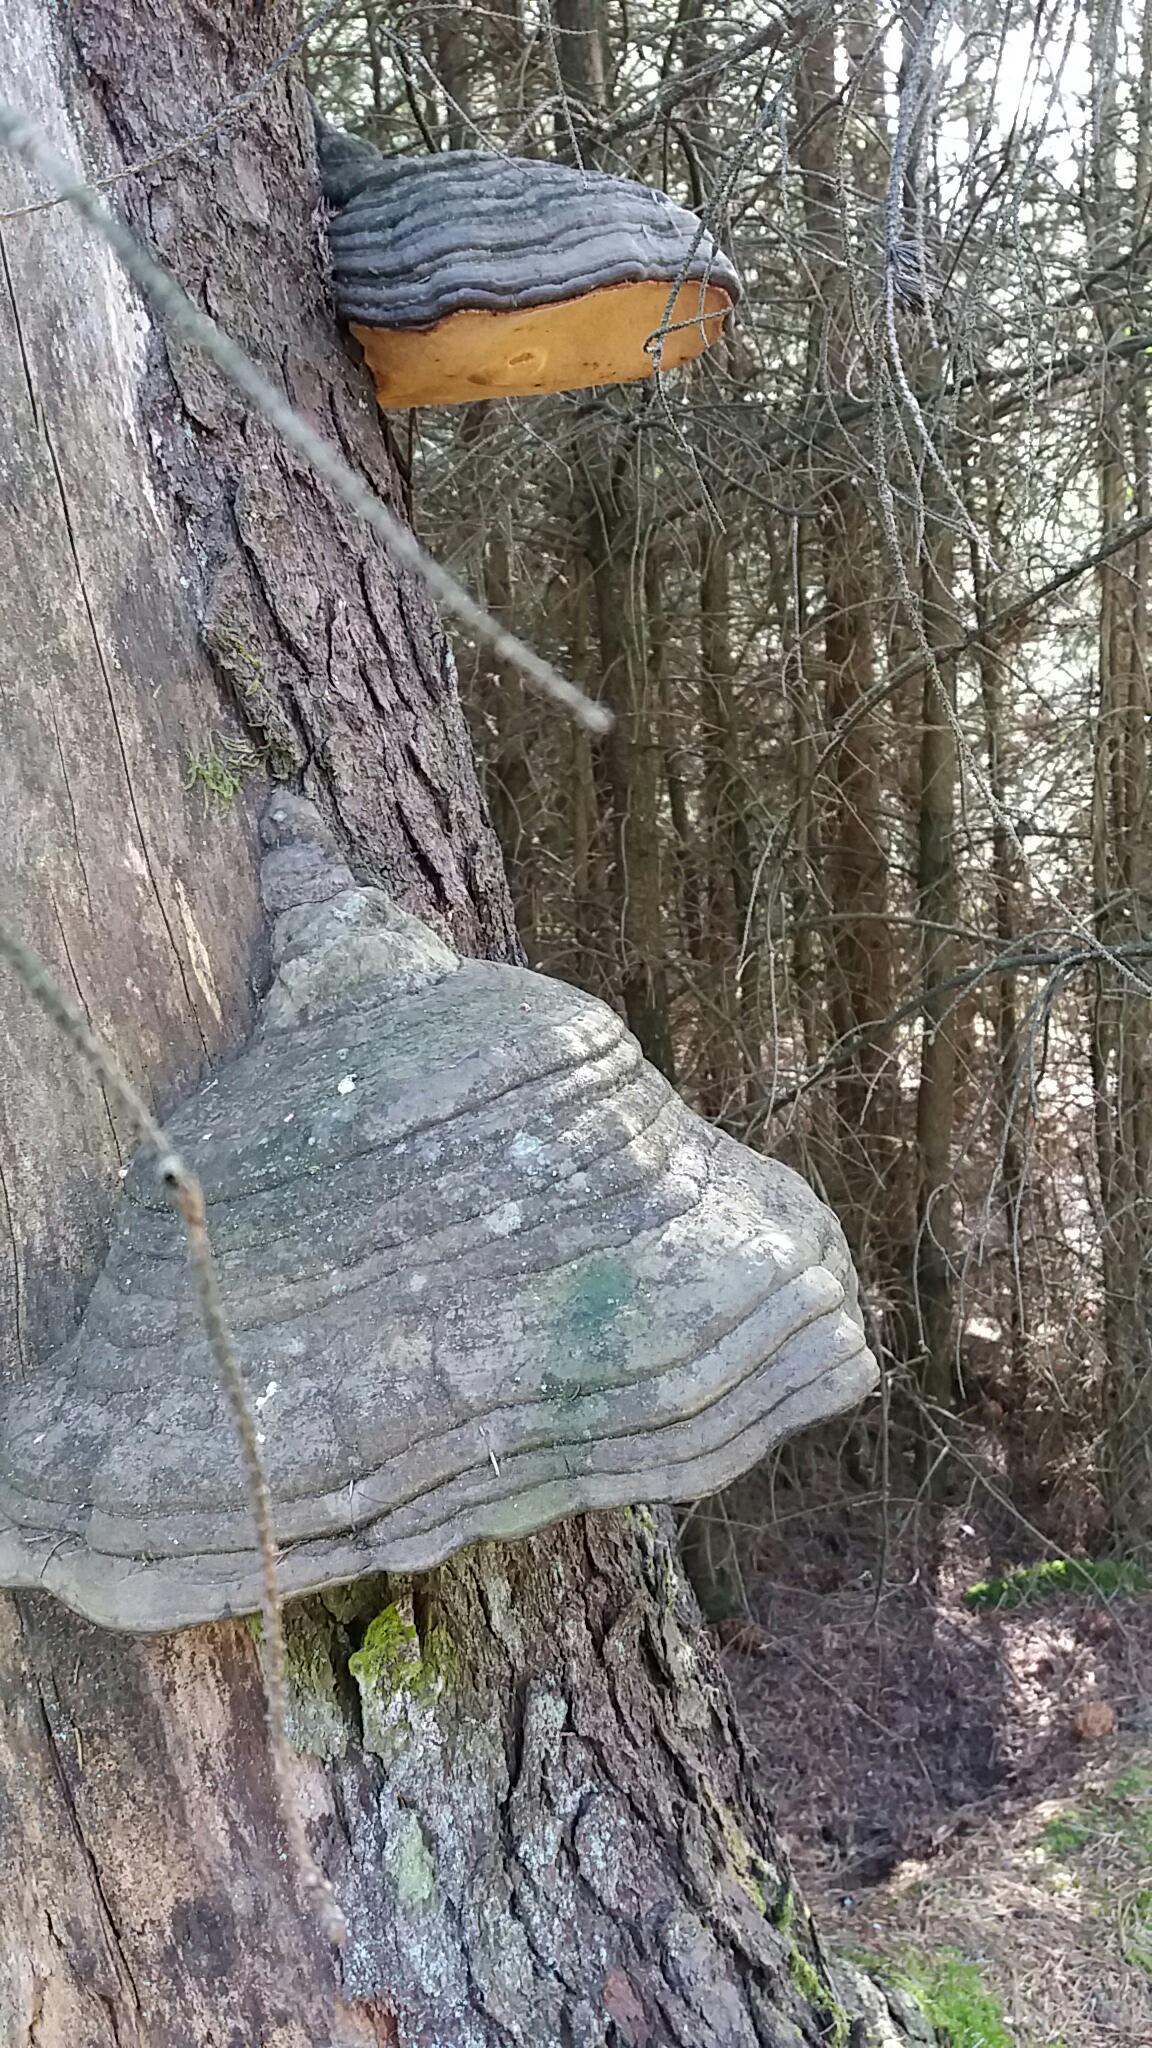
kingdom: Fungi
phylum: Basidiomycota
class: Agaricomycetes
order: Polyporales
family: Fomitopsidaceae
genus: Fomitopsis
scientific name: Fomitopsis pinicola
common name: randbæltet hovporesvamp
